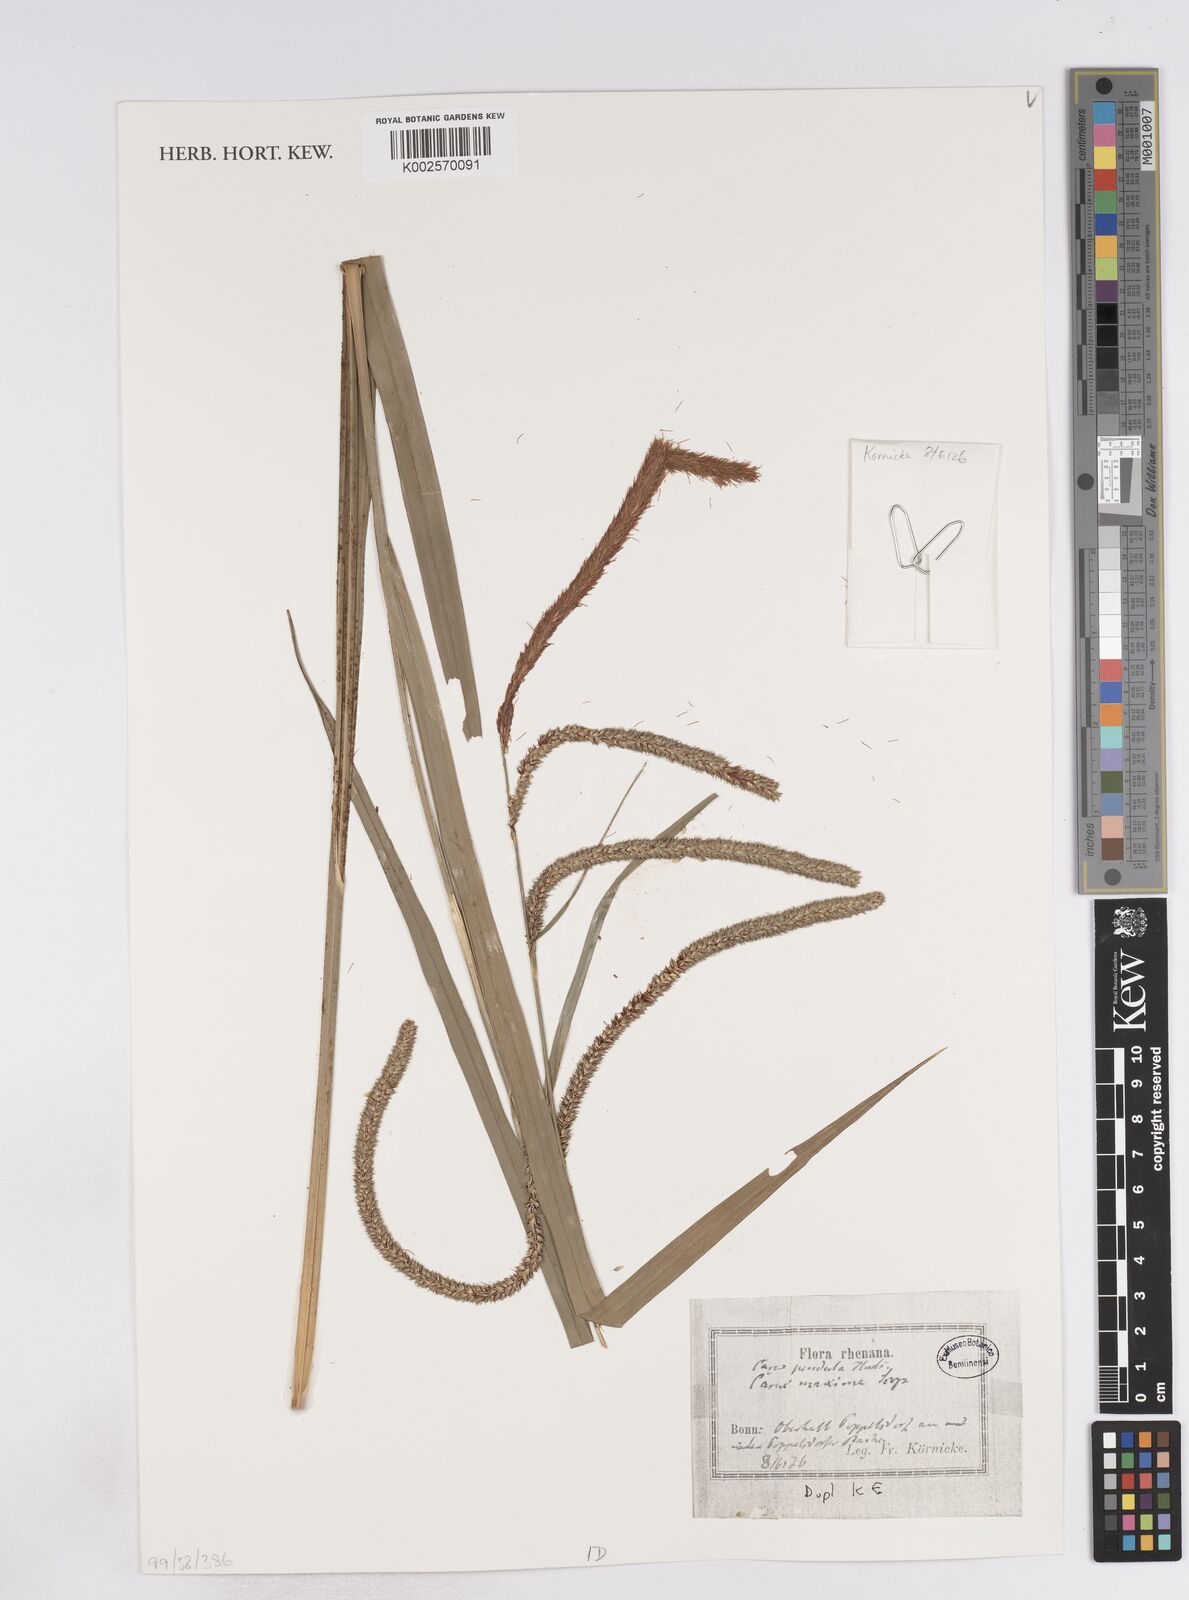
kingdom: Plantae
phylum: Tracheophyta
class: Liliopsida
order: Poales
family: Cyperaceae
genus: Carex
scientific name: Carex pendula
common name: Pendulous sedge
